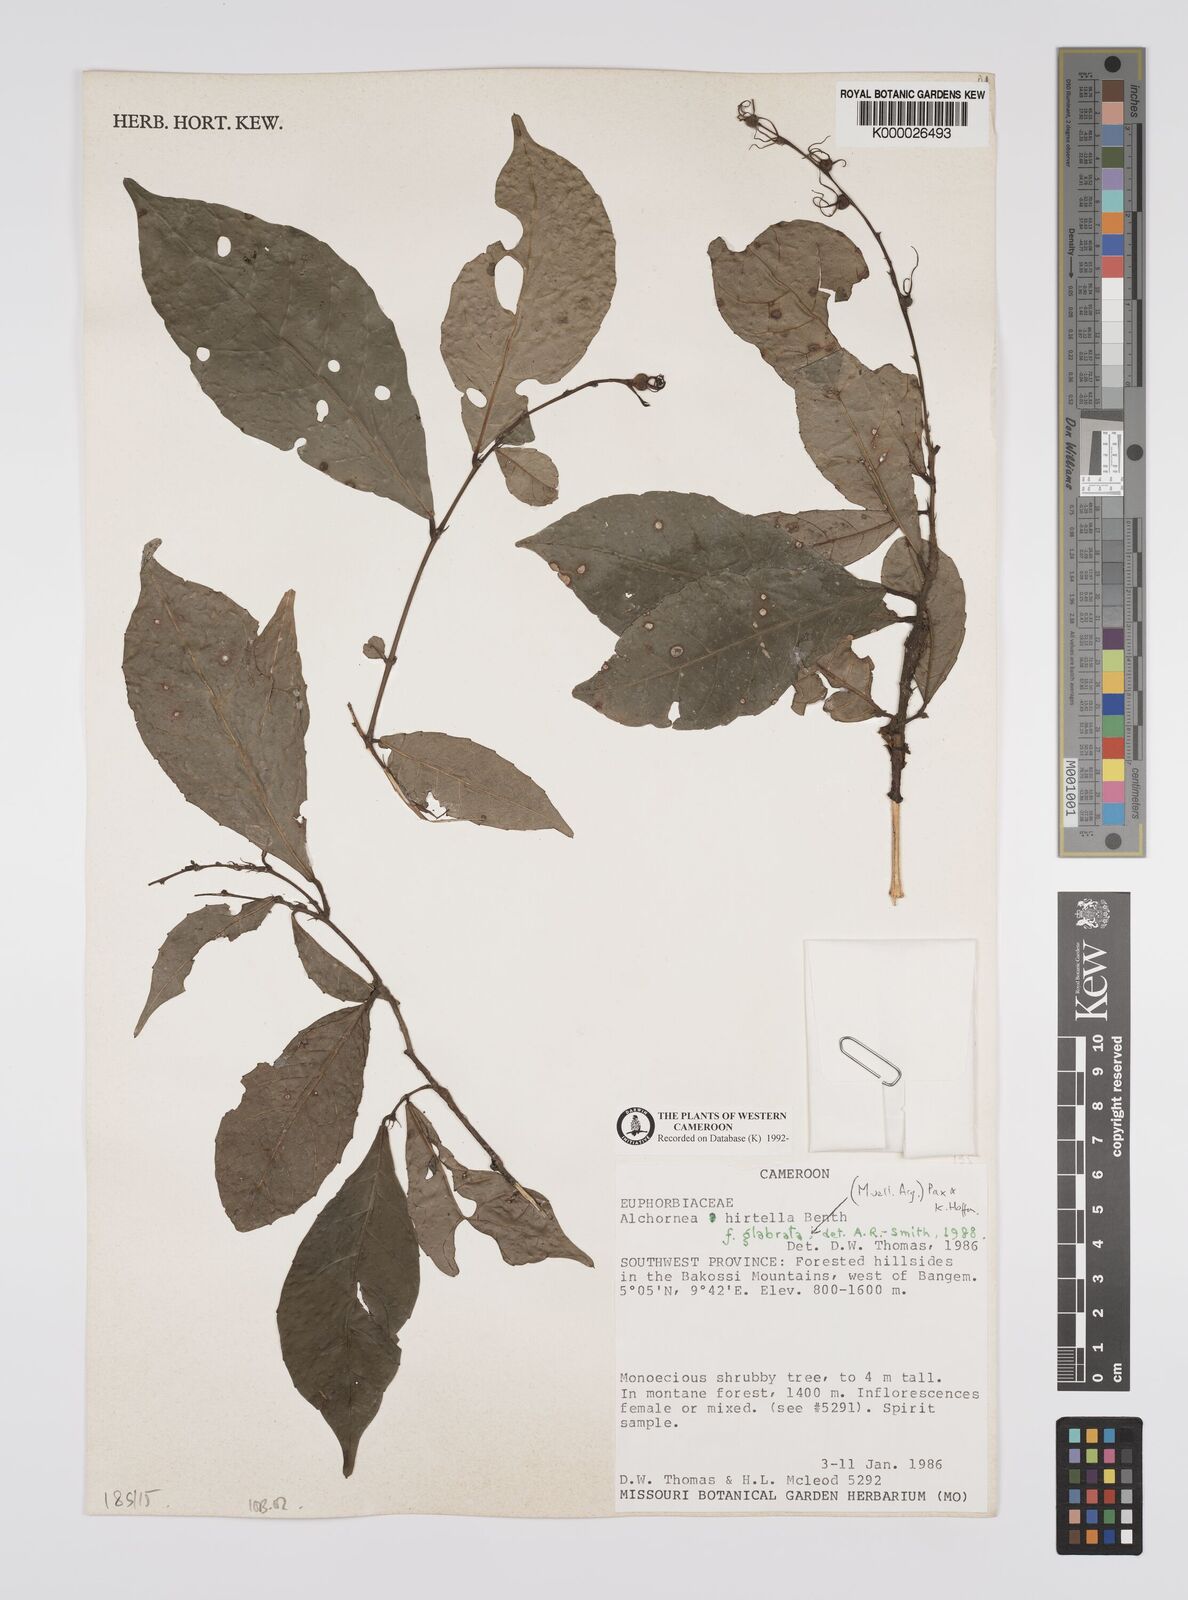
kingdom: Plantae
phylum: Tracheophyta
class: Magnoliopsida
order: Malpighiales
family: Euphorbiaceae
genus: Alchornea
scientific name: Alchornea hirtella
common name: Forest bead-string
